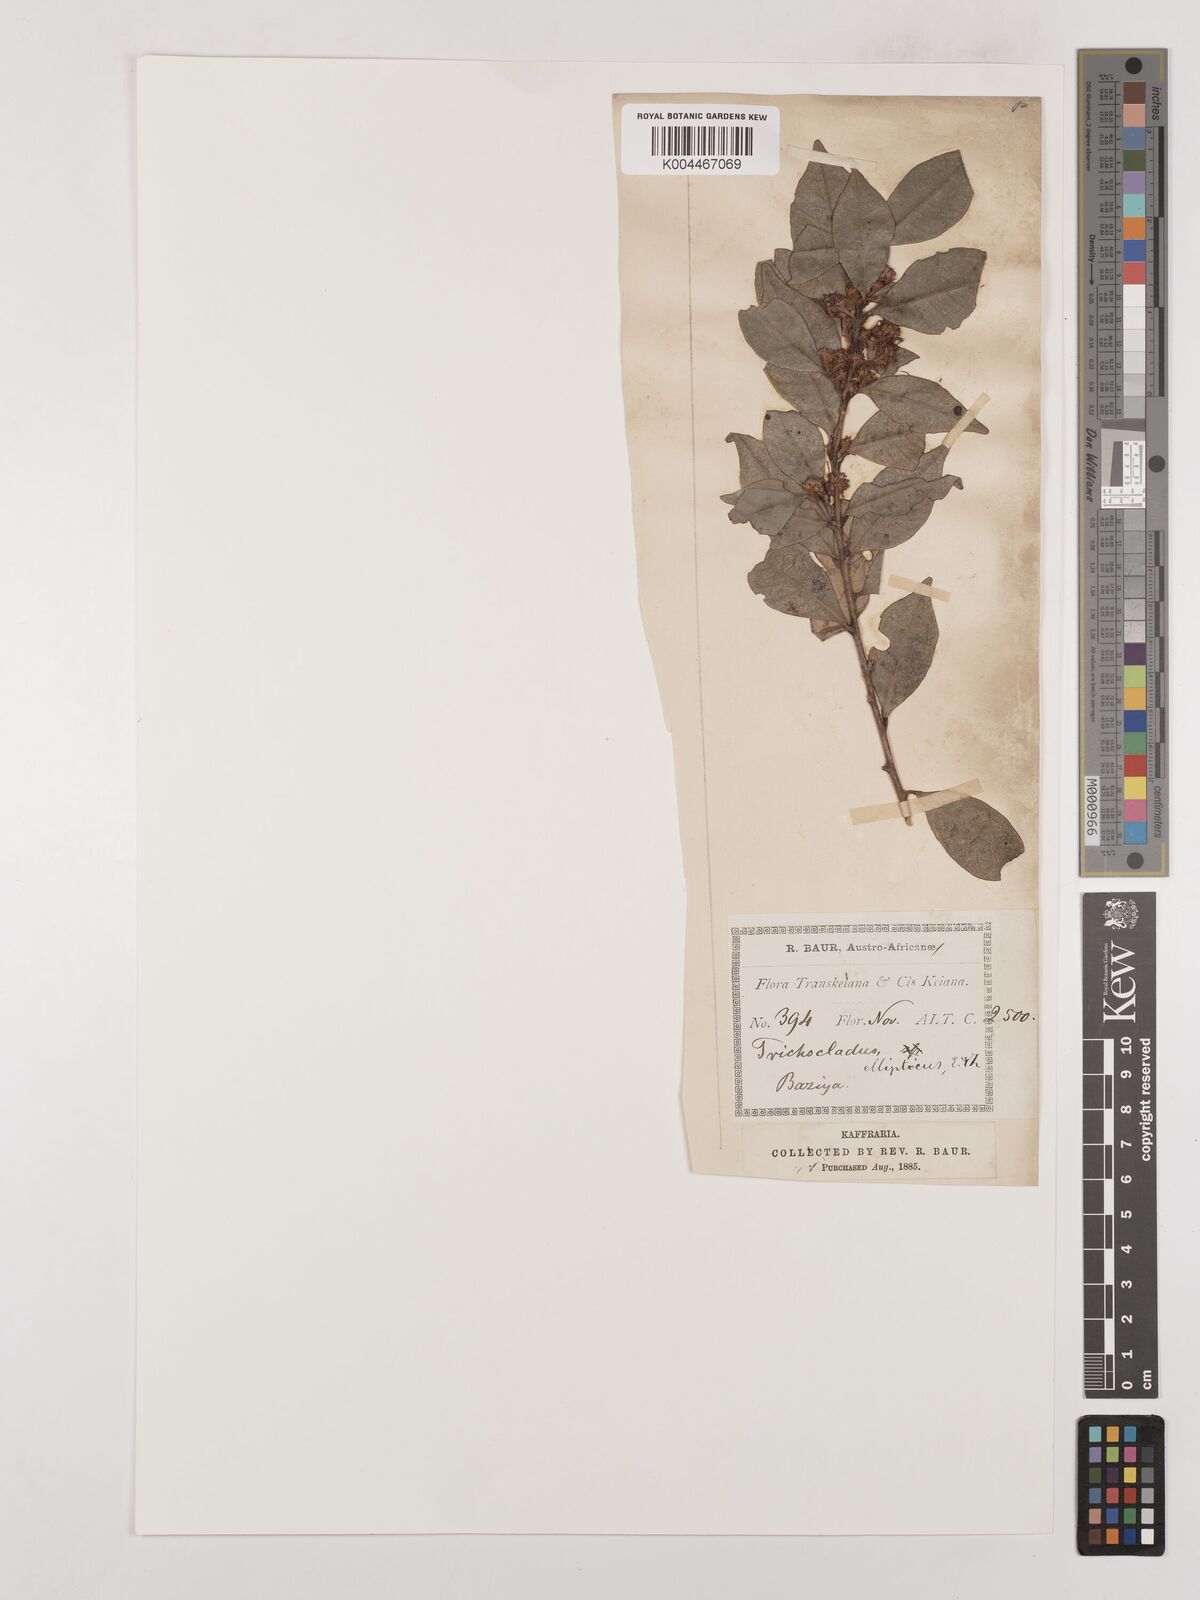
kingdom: Plantae
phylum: Tracheophyta
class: Magnoliopsida
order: Saxifragales
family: Hamamelidaceae
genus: Trichocladus
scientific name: Trichocladus
